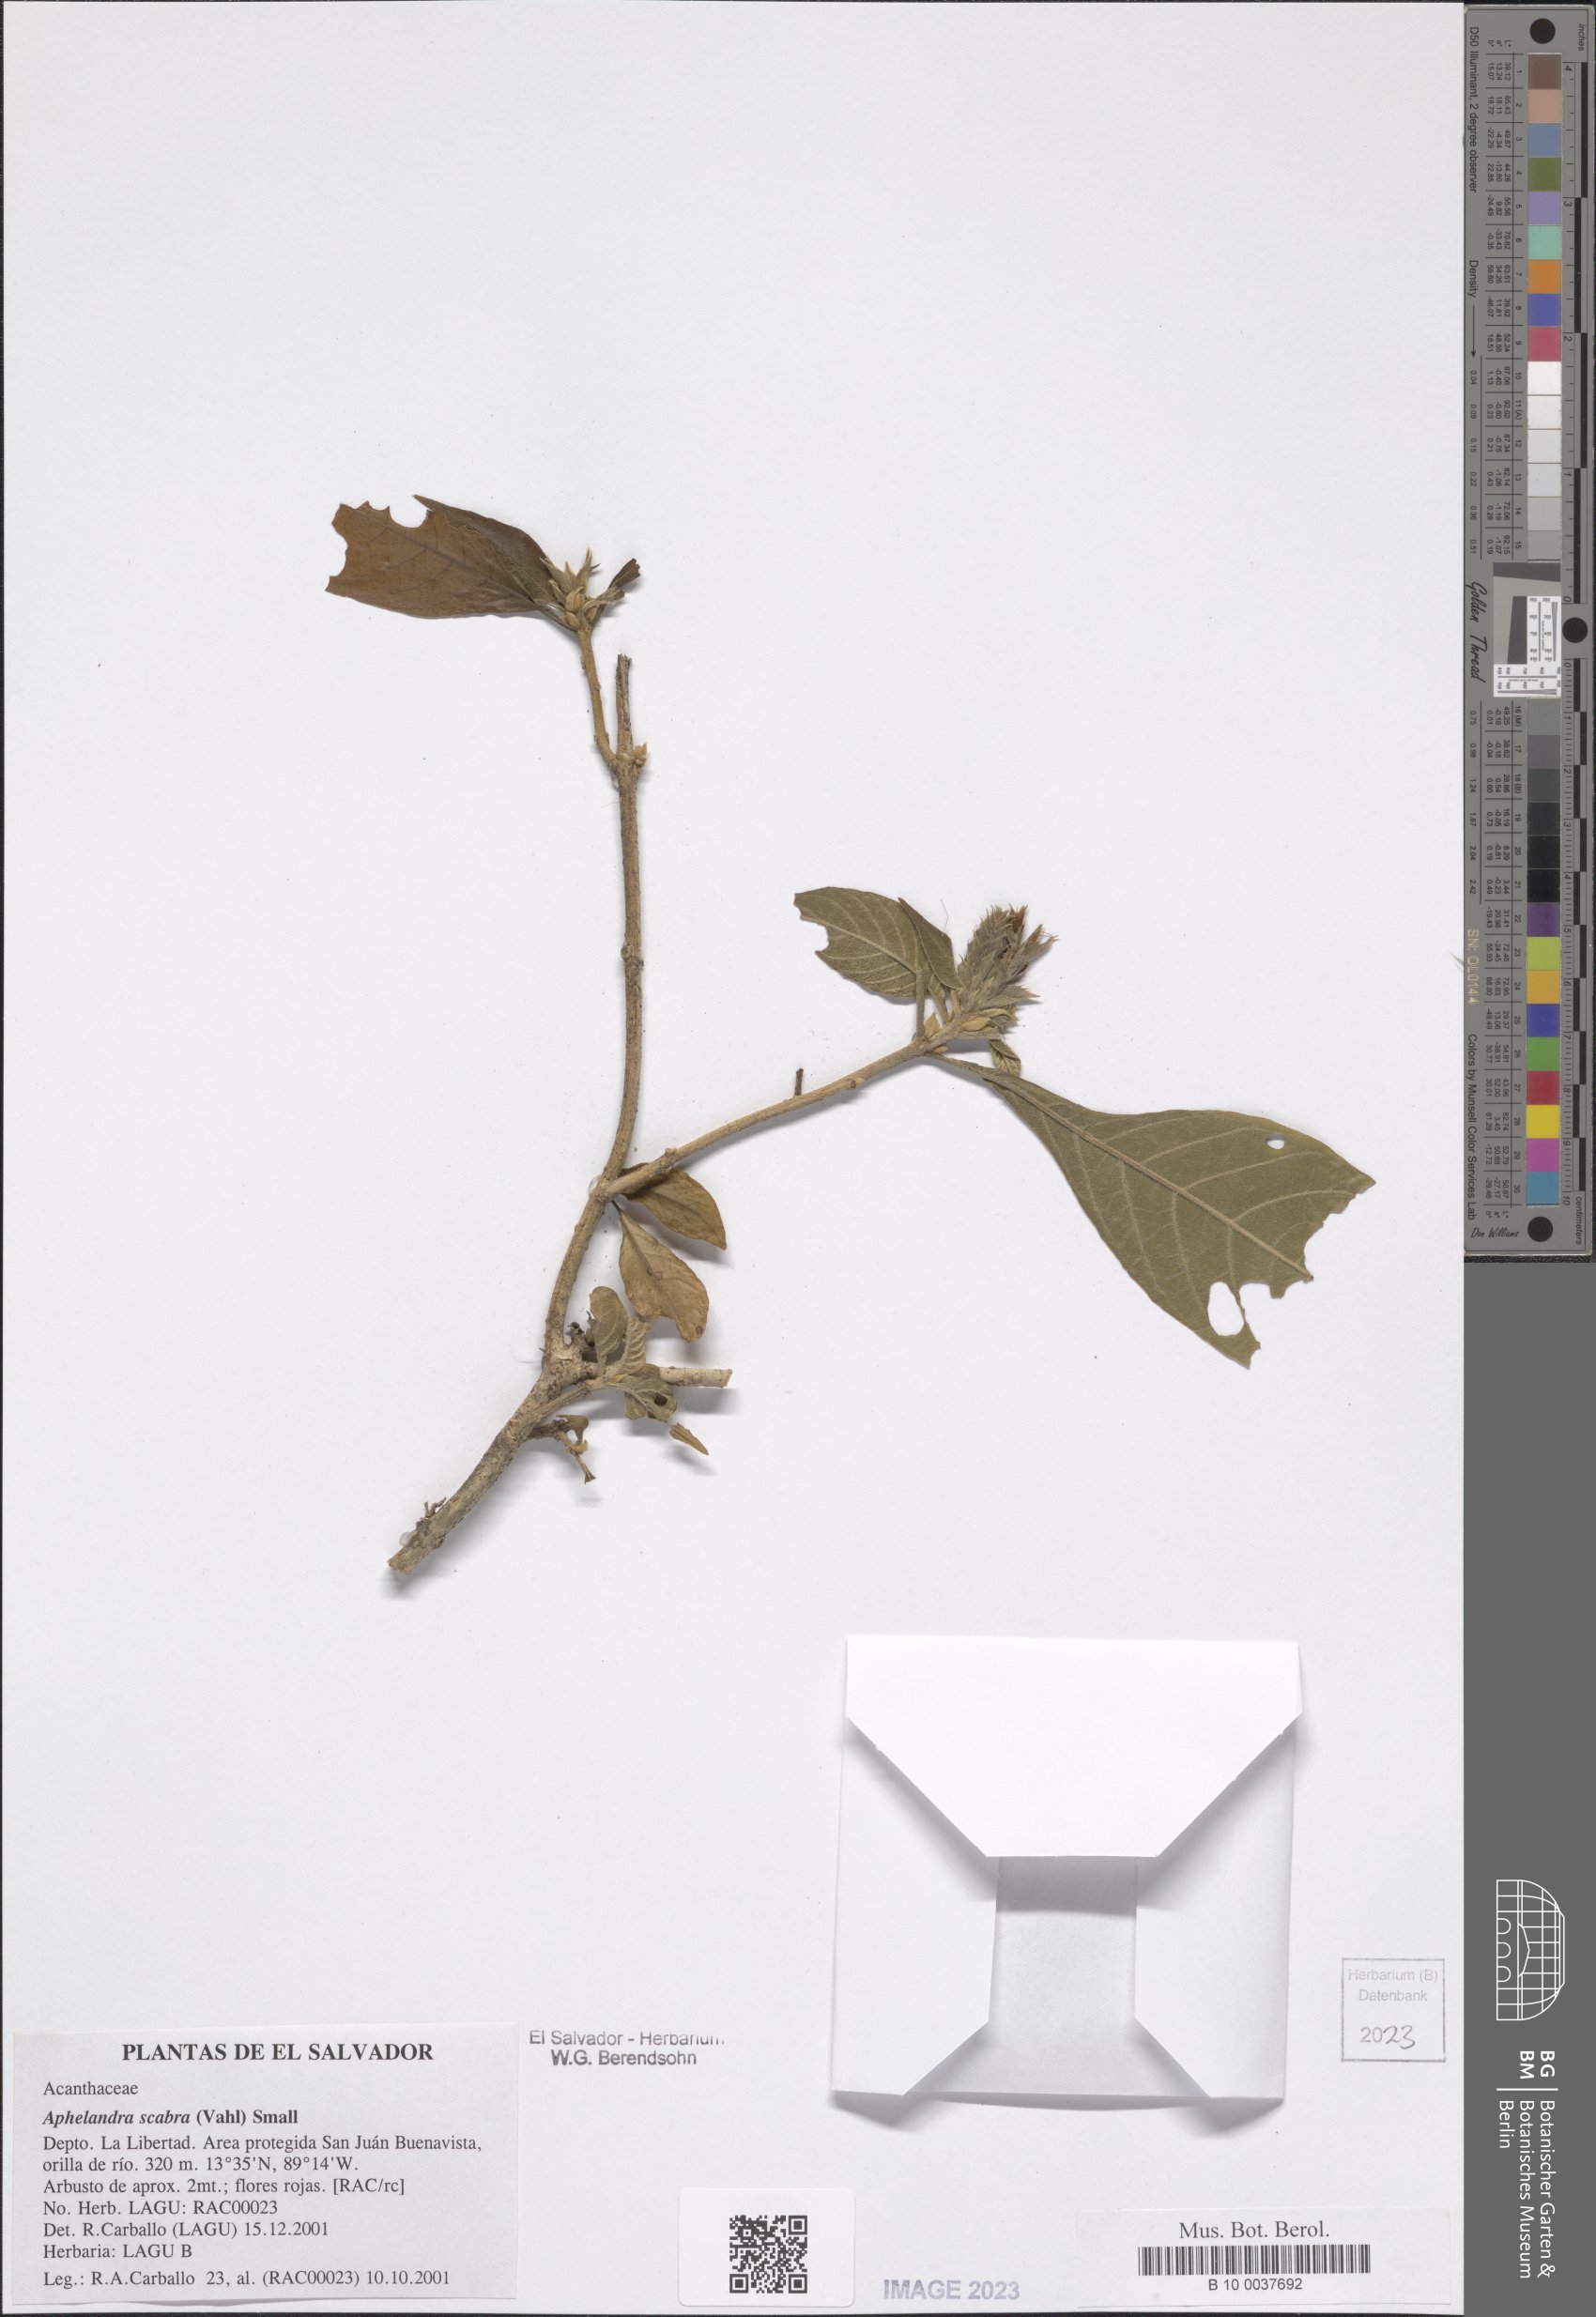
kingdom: Plantae
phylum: Tracheophyta
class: Magnoliopsida
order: Lamiales
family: Acanthaceae
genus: Aphelandra
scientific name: Aphelandra scabra
